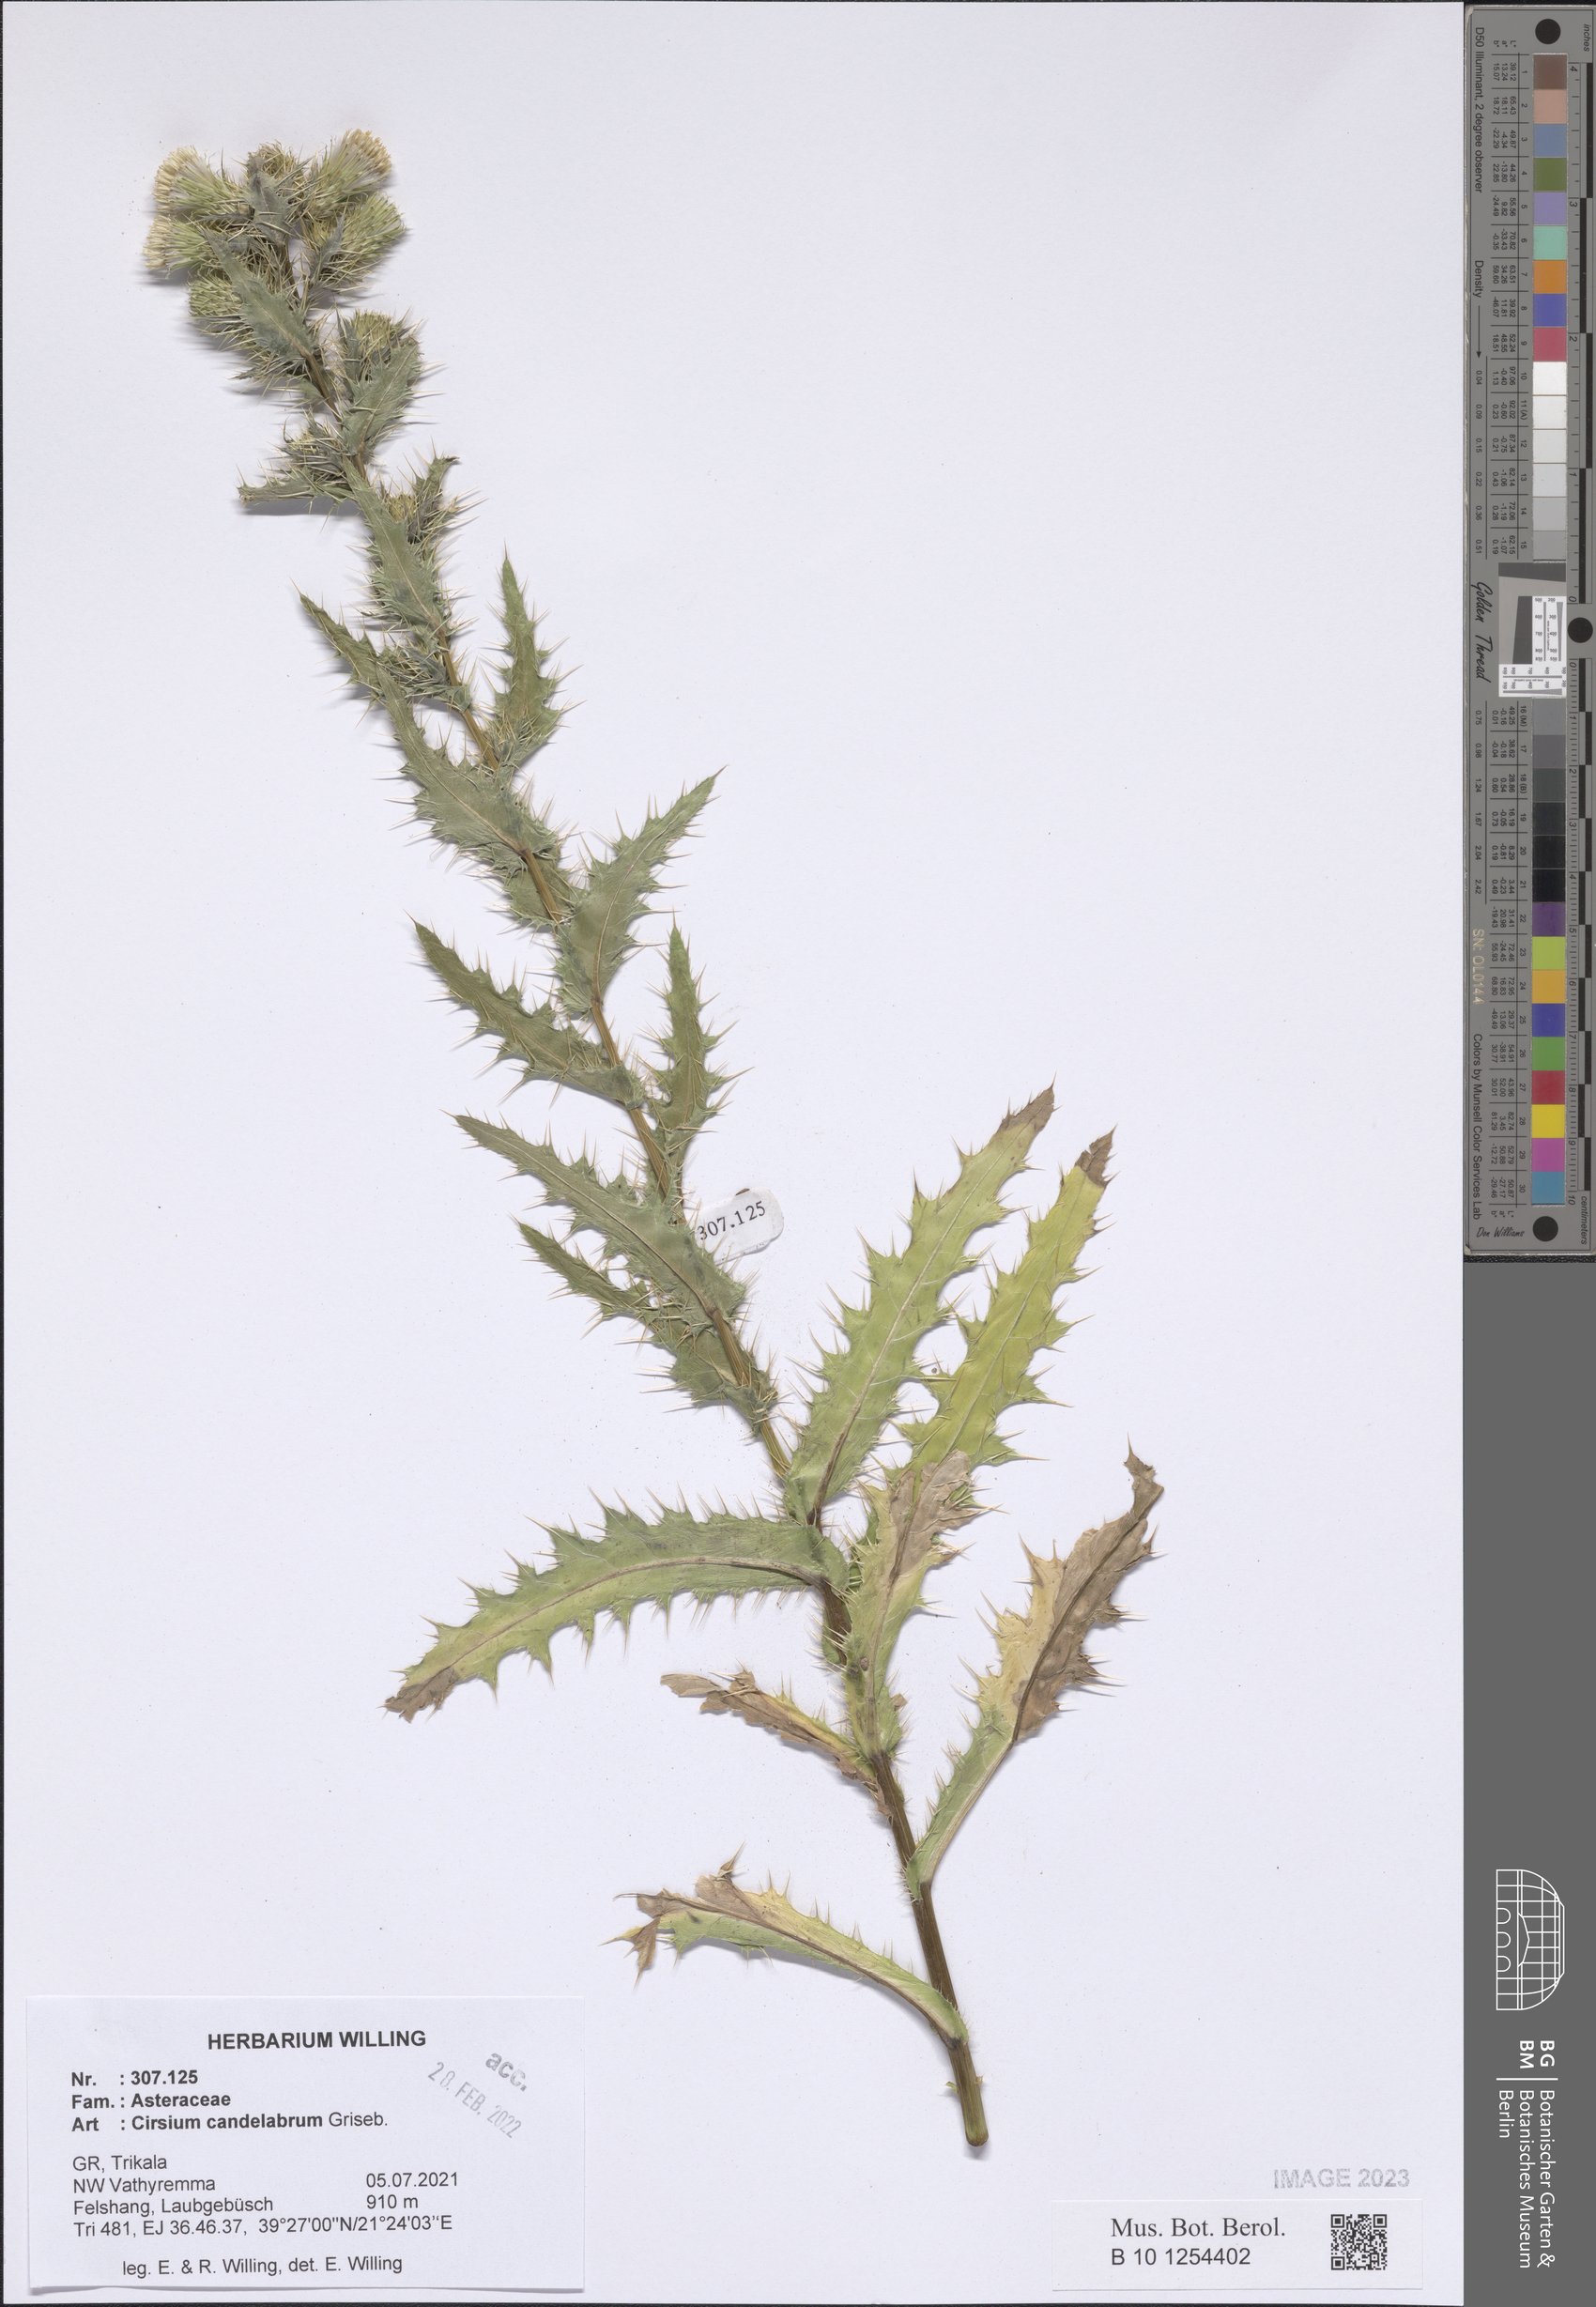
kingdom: Plantae
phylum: Tracheophyta
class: Magnoliopsida
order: Asterales
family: Asteraceae
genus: Cirsium
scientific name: Cirsium candelabrum
